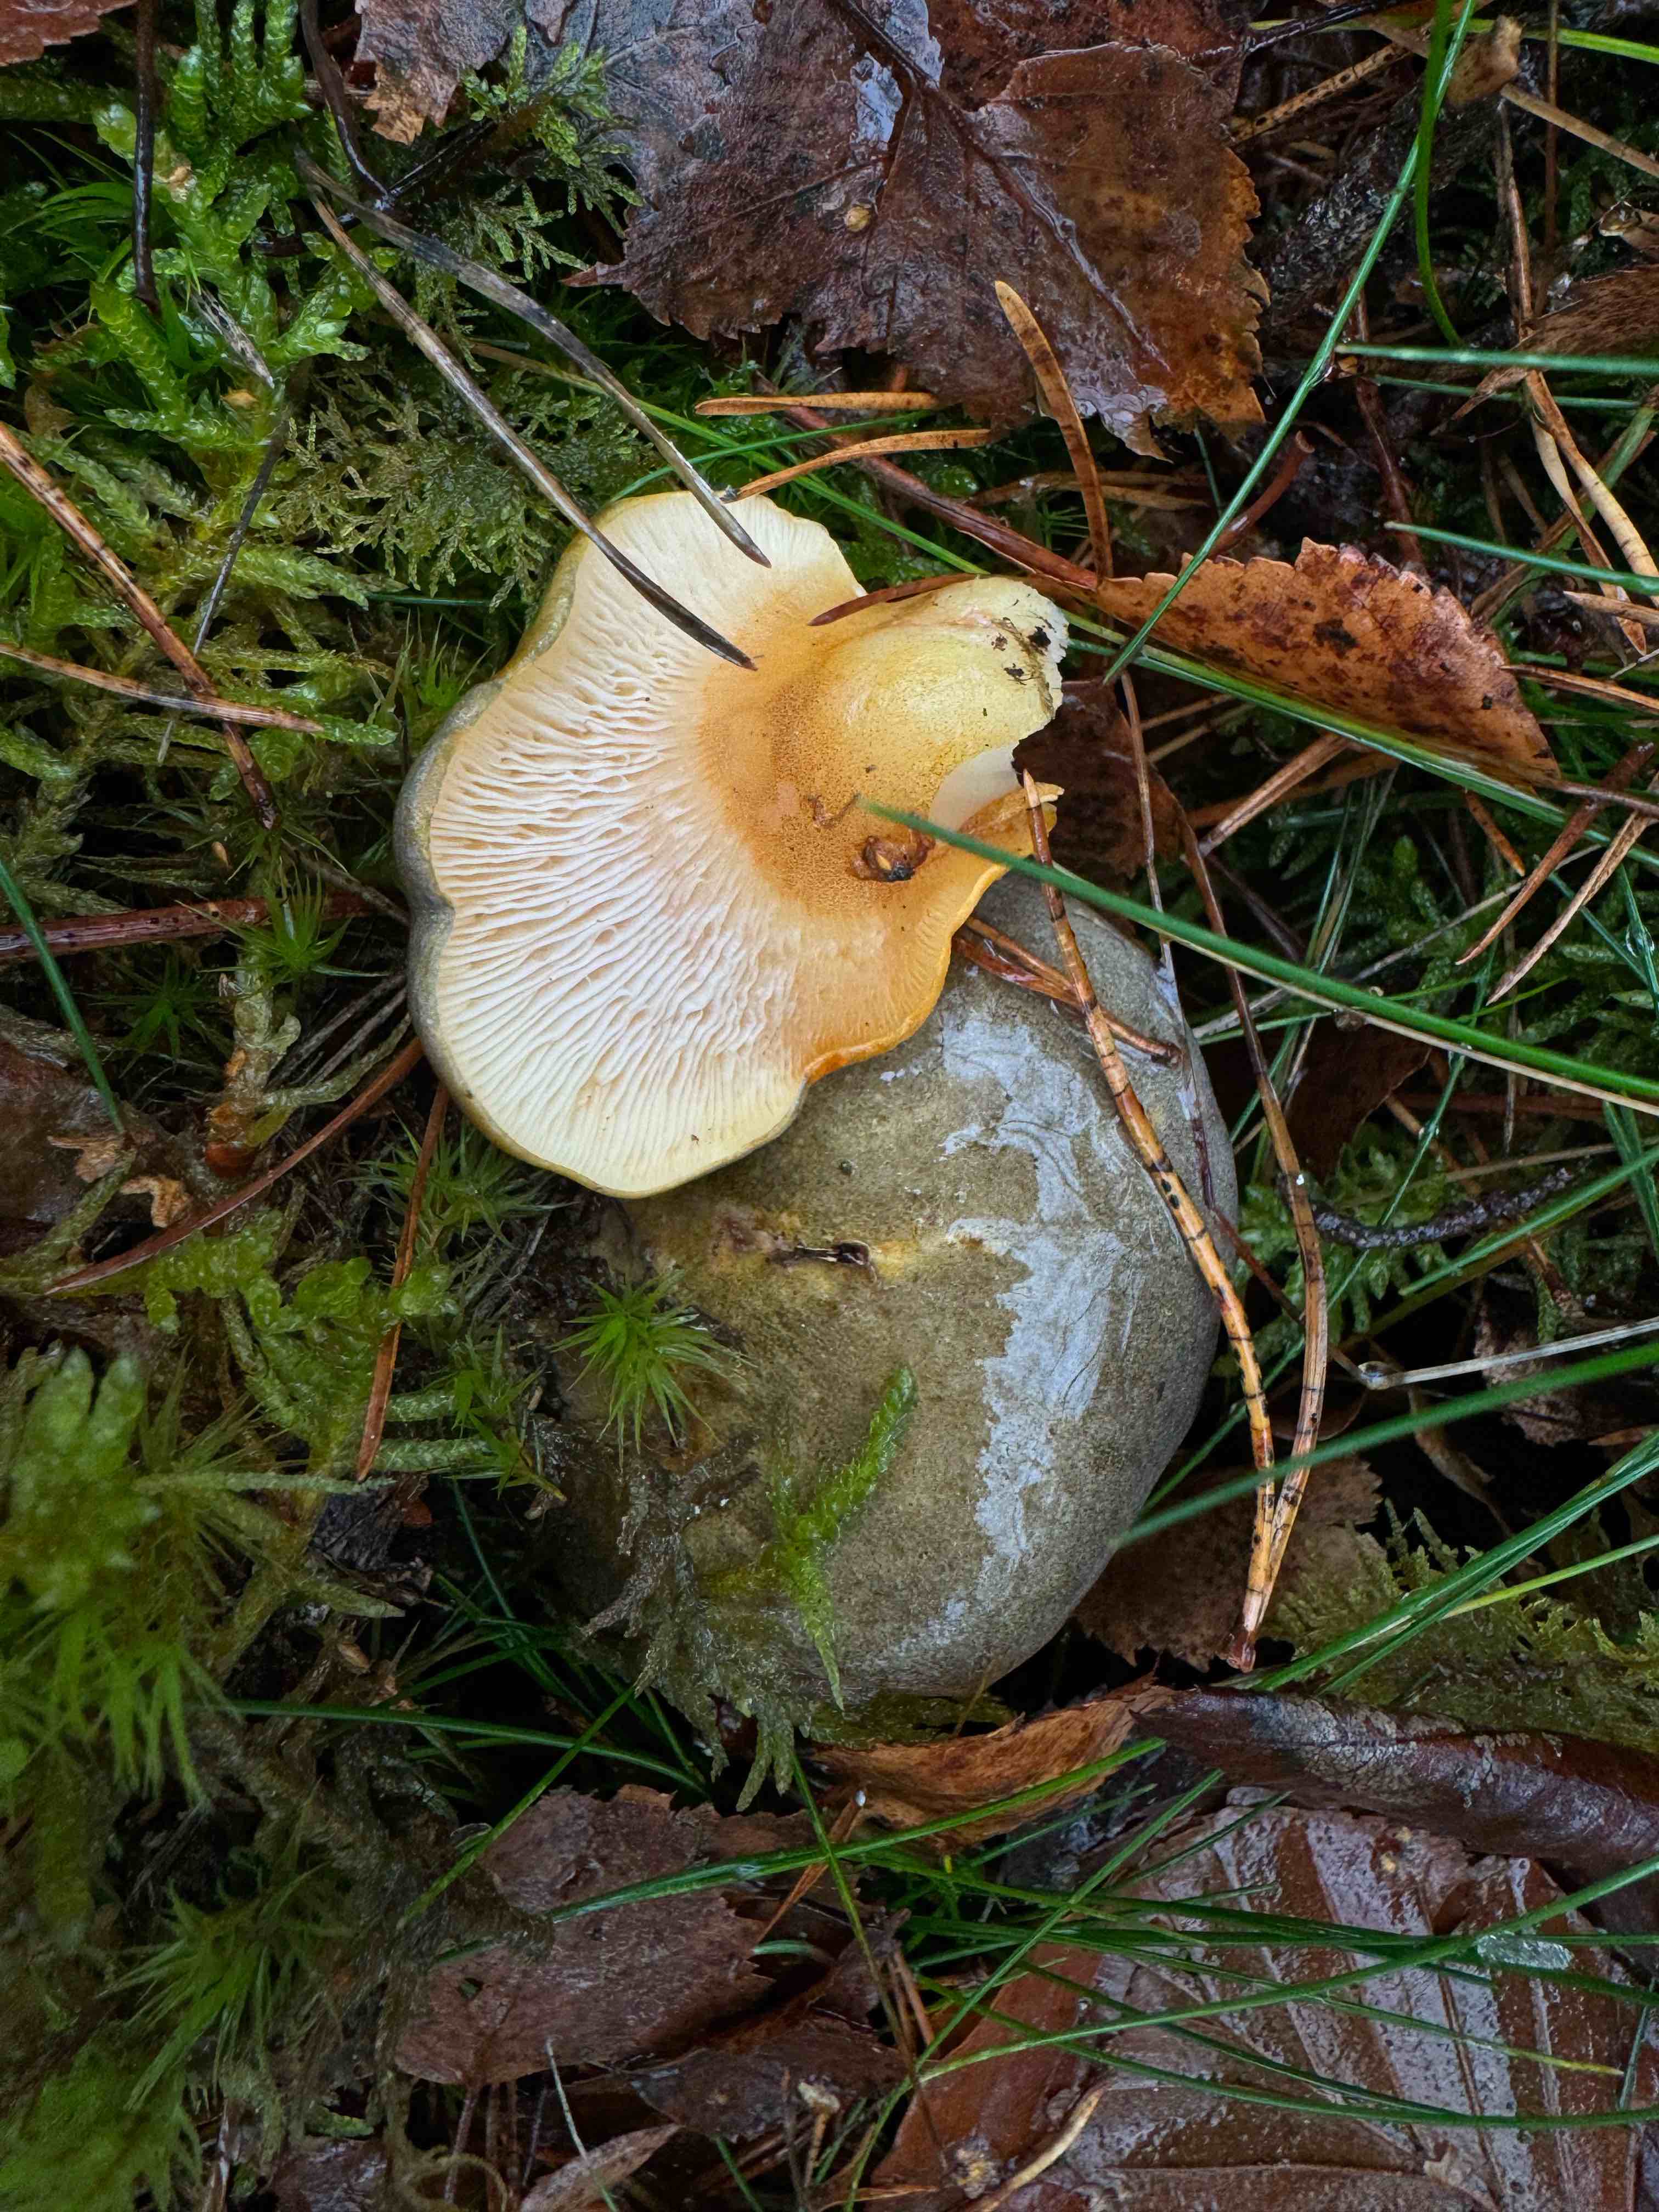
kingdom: Fungi
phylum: Basidiomycota
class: Agaricomycetes
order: Agaricales
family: Sarcomyxaceae
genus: Sarcomyxa
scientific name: Sarcomyxa serotina
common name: gummihat
